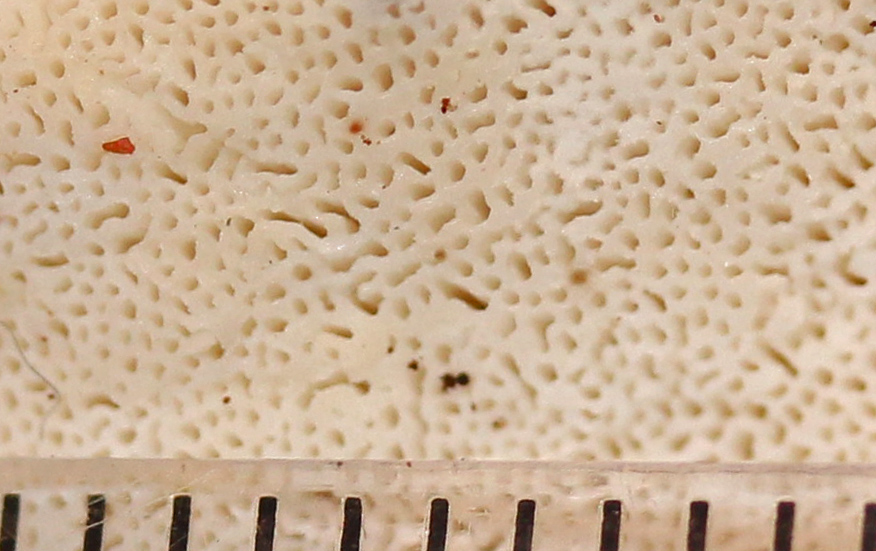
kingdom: Fungi
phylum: Basidiomycota
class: Agaricomycetes
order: Polyporales
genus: Amaropostia
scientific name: Amaropostia stiptica
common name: bitter kødporesvamp
